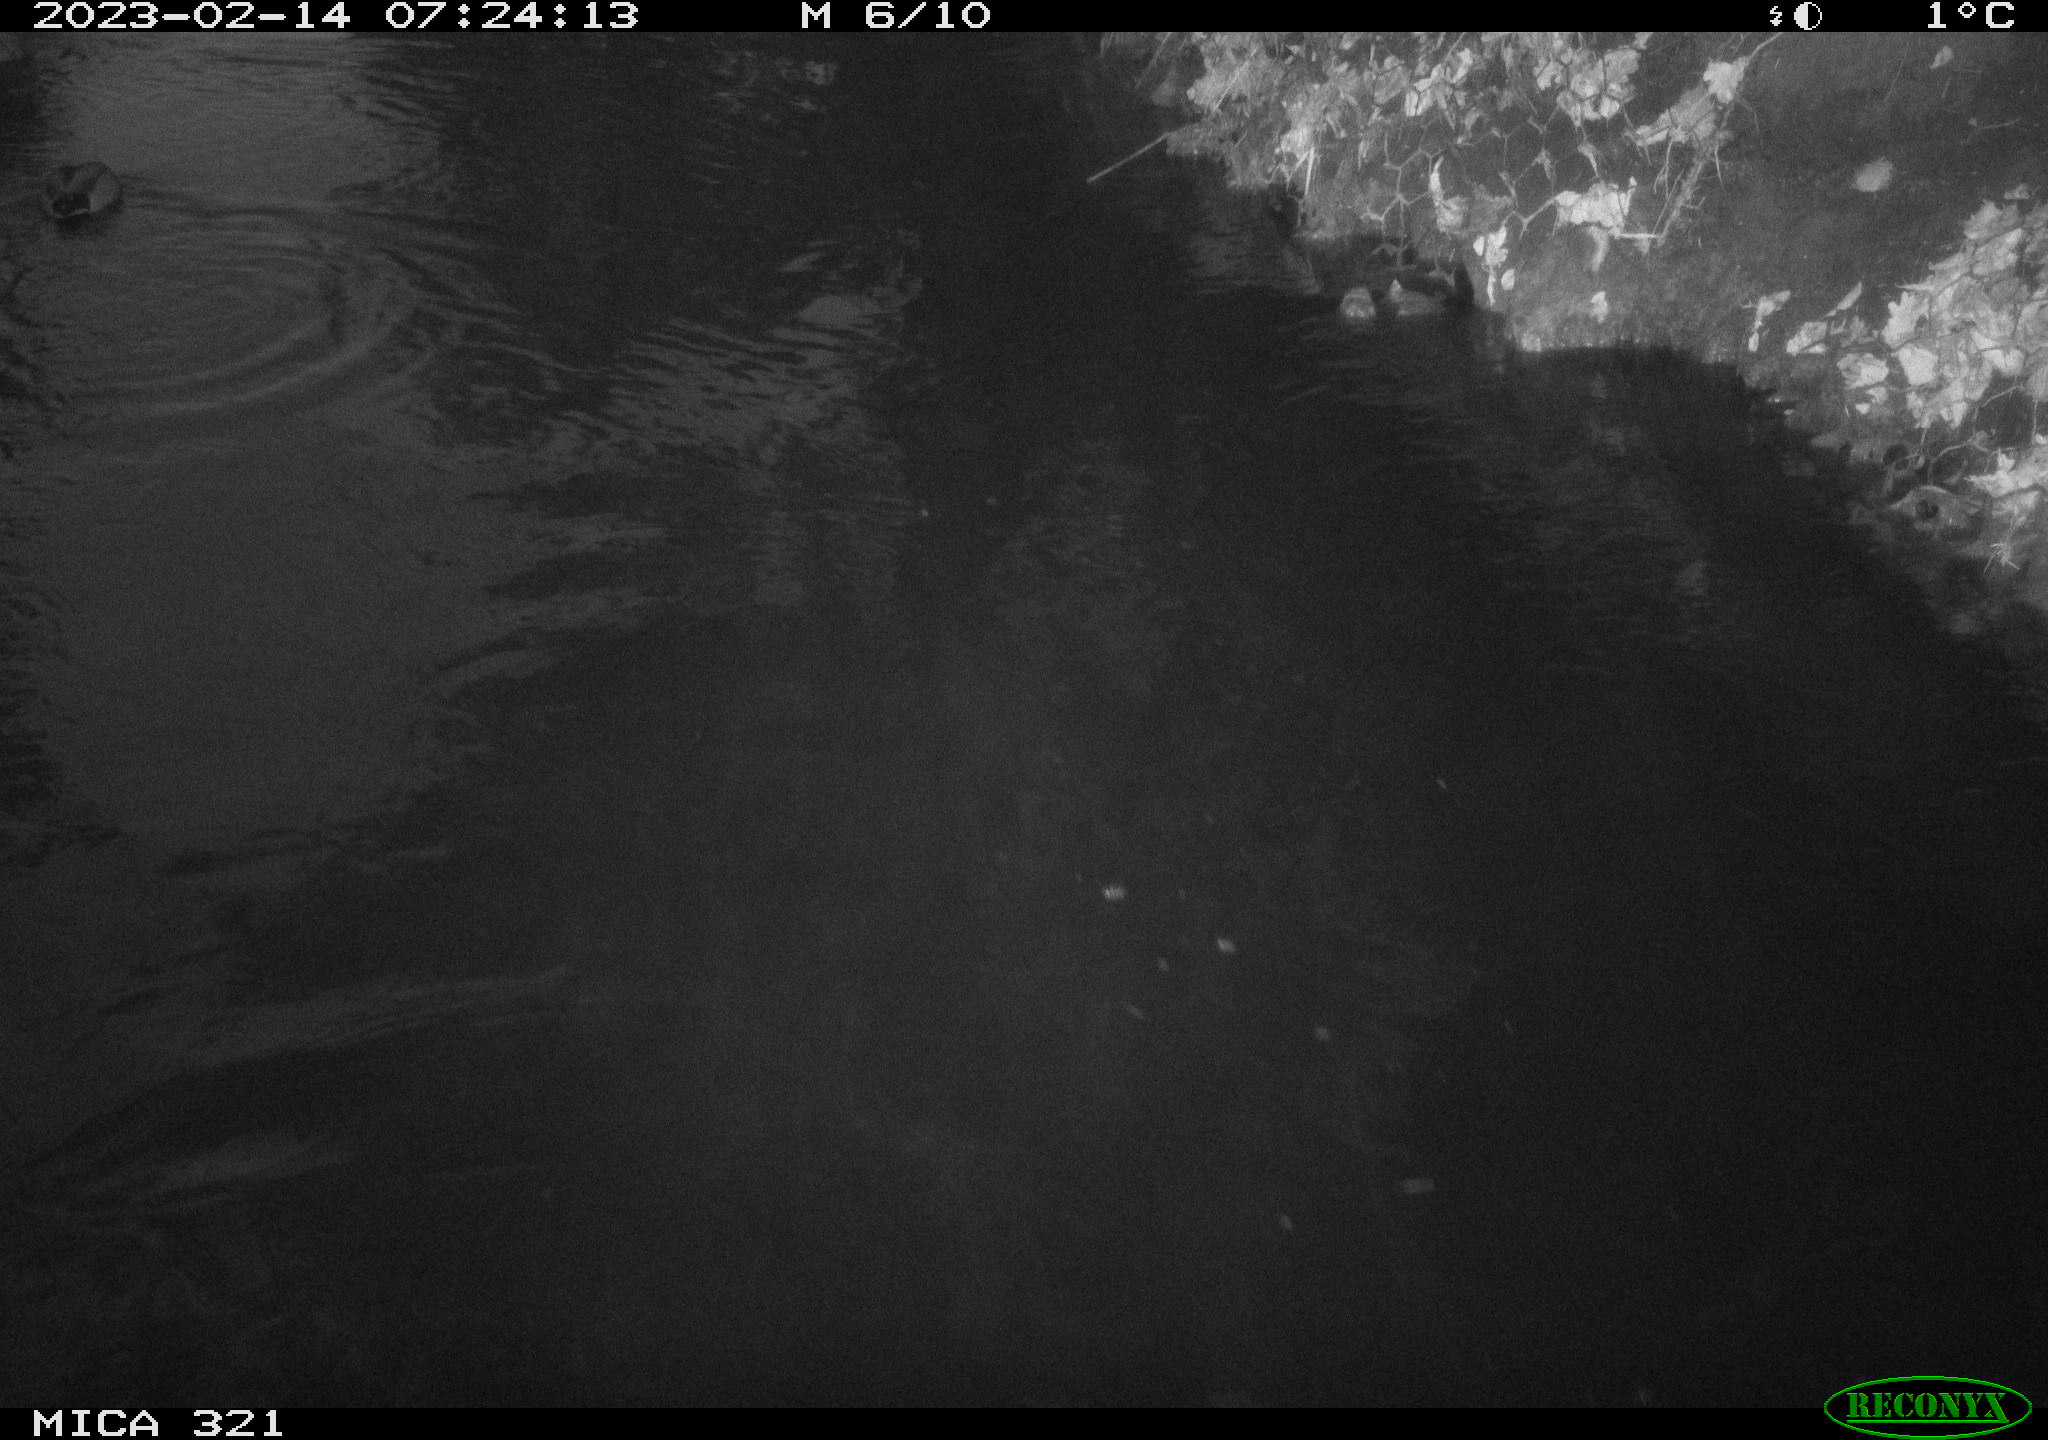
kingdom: Animalia
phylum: Chordata
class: Aves
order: Anseriformes
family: Anatidae
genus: Anas
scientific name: Anas
